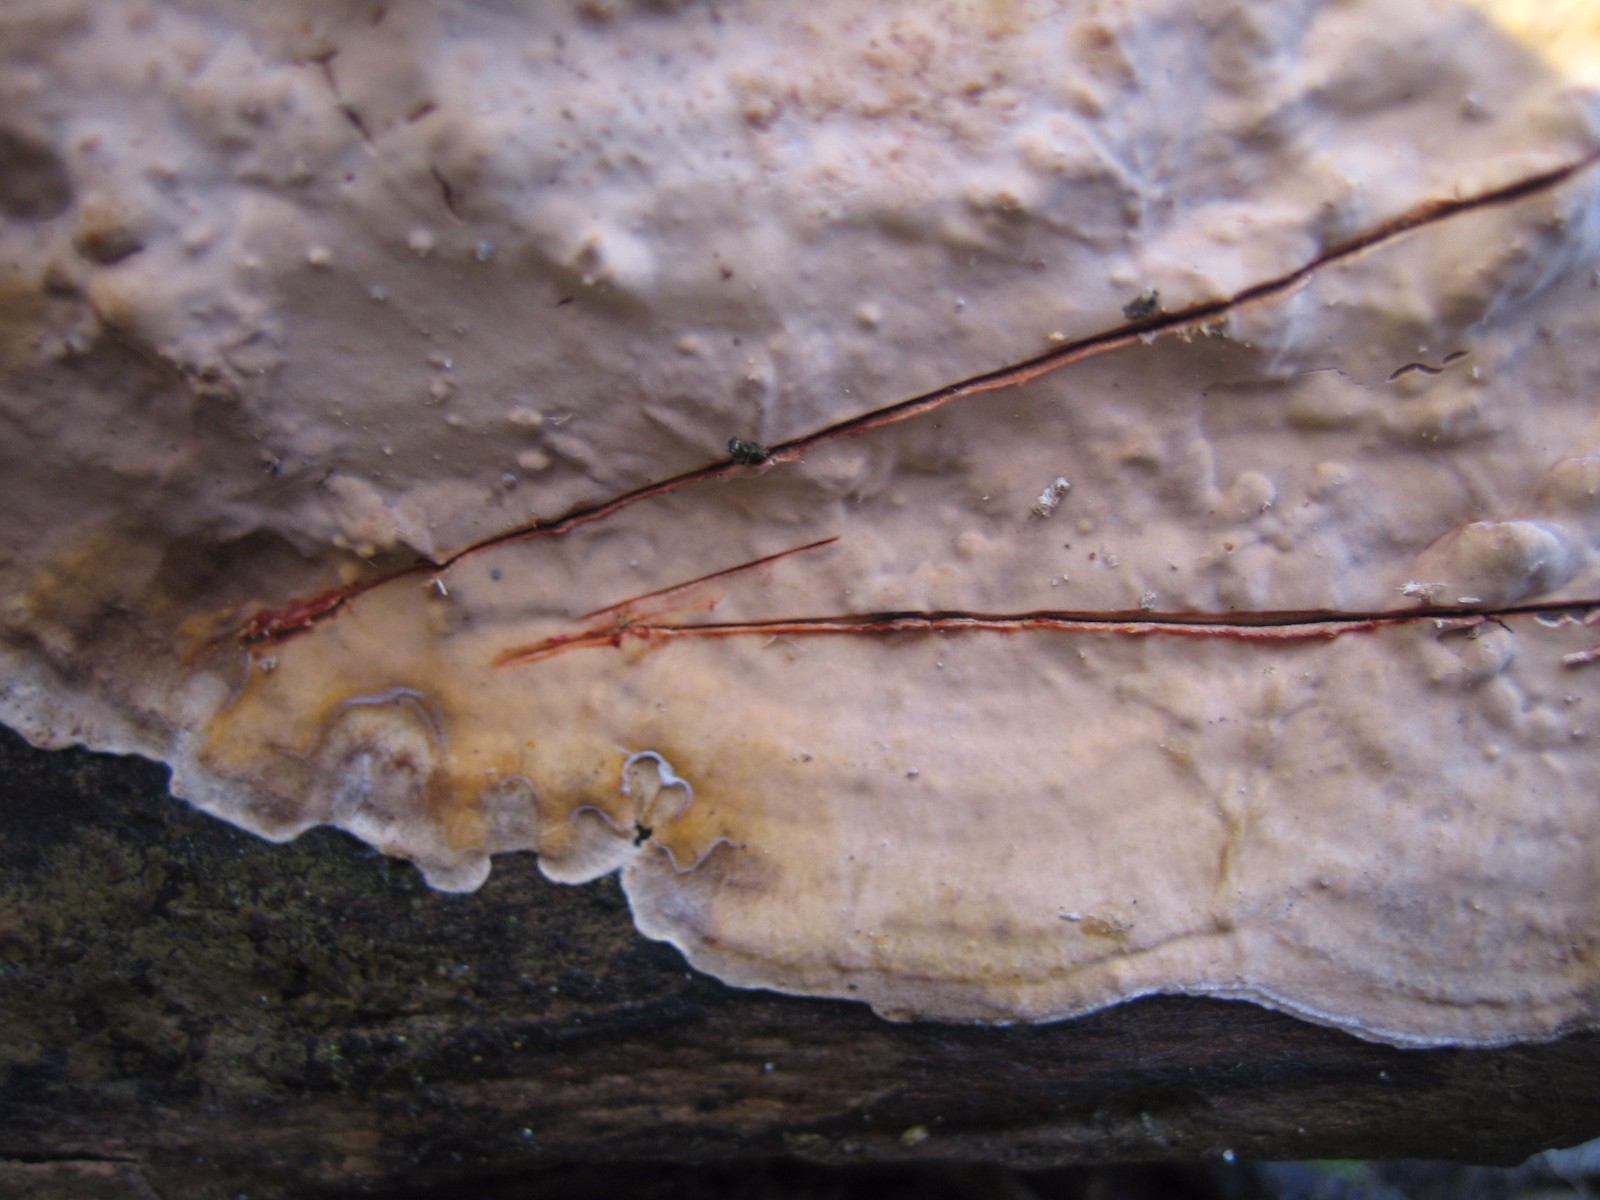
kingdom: Fungi
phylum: Basidiomycota
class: Agaricomycetes
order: Russulales
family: Stereaceae
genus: Stereum
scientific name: Stereum rugosum
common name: rynket lædersvamp
